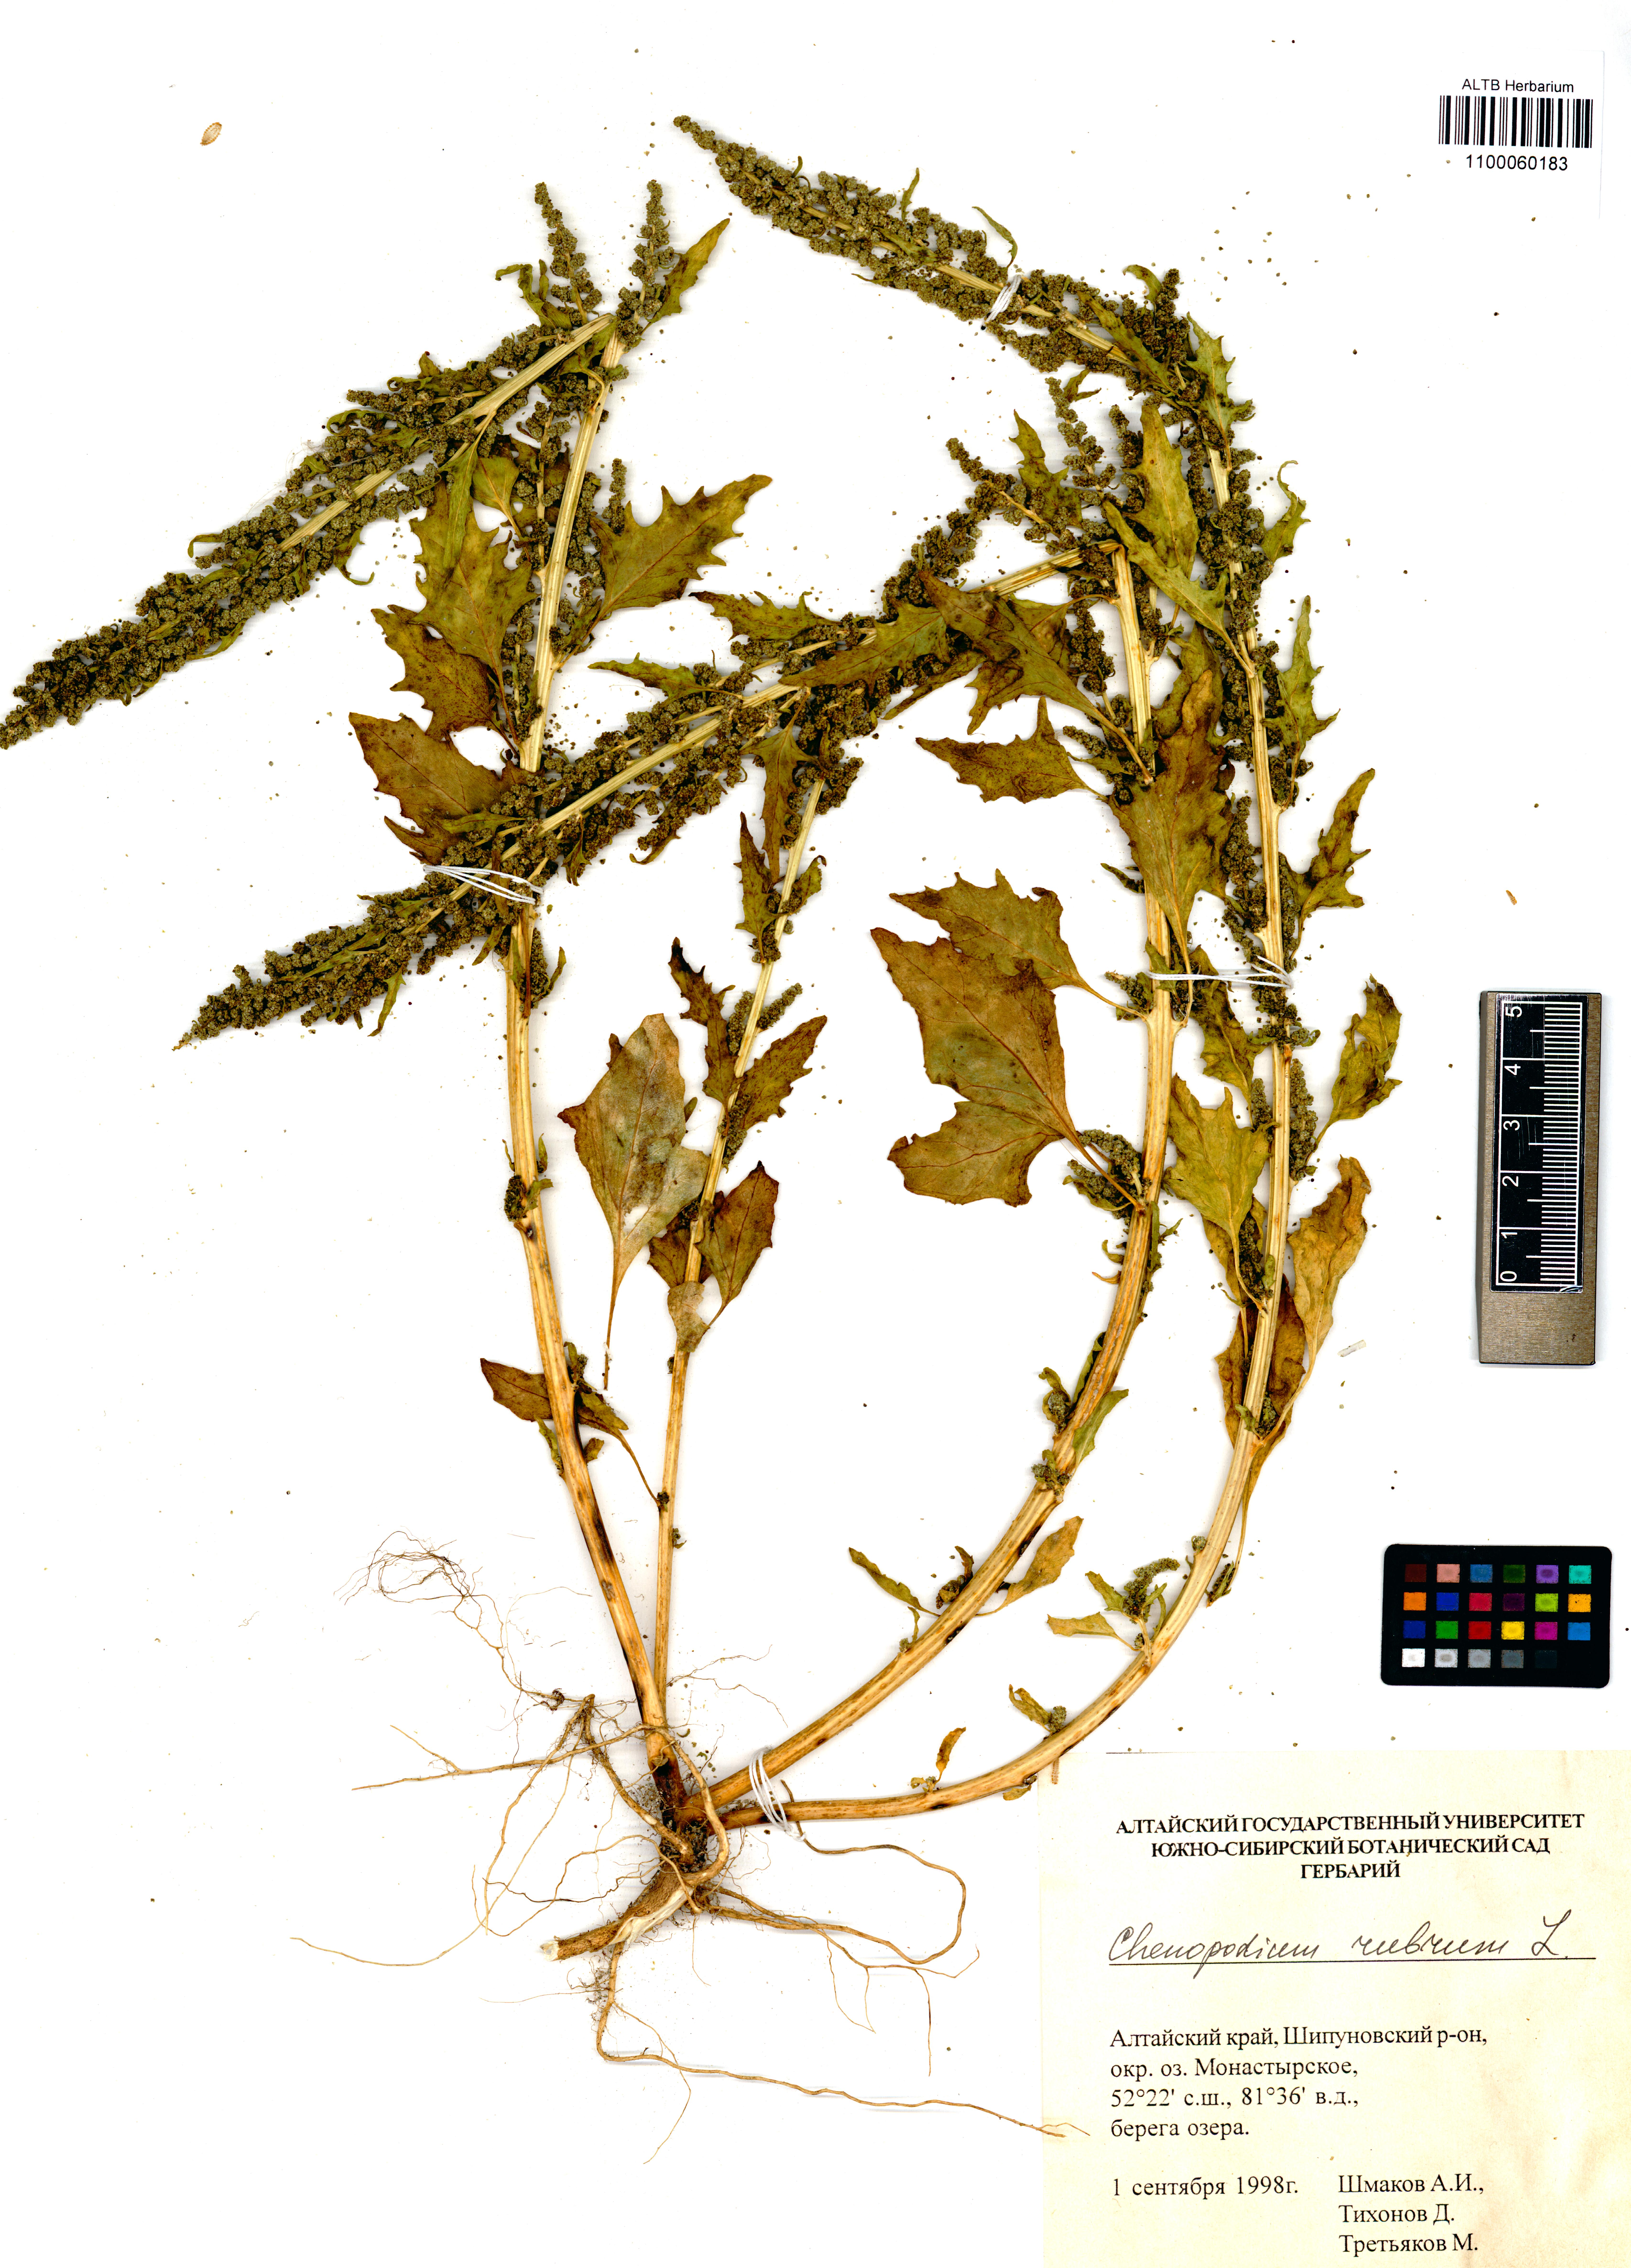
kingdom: Plantae
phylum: Tracheophyta
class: Magnoliopsida
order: Caryophyllales
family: Amaranthaceae
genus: Oxybasis
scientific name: Oxybasis rubra
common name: Red goosefoot
